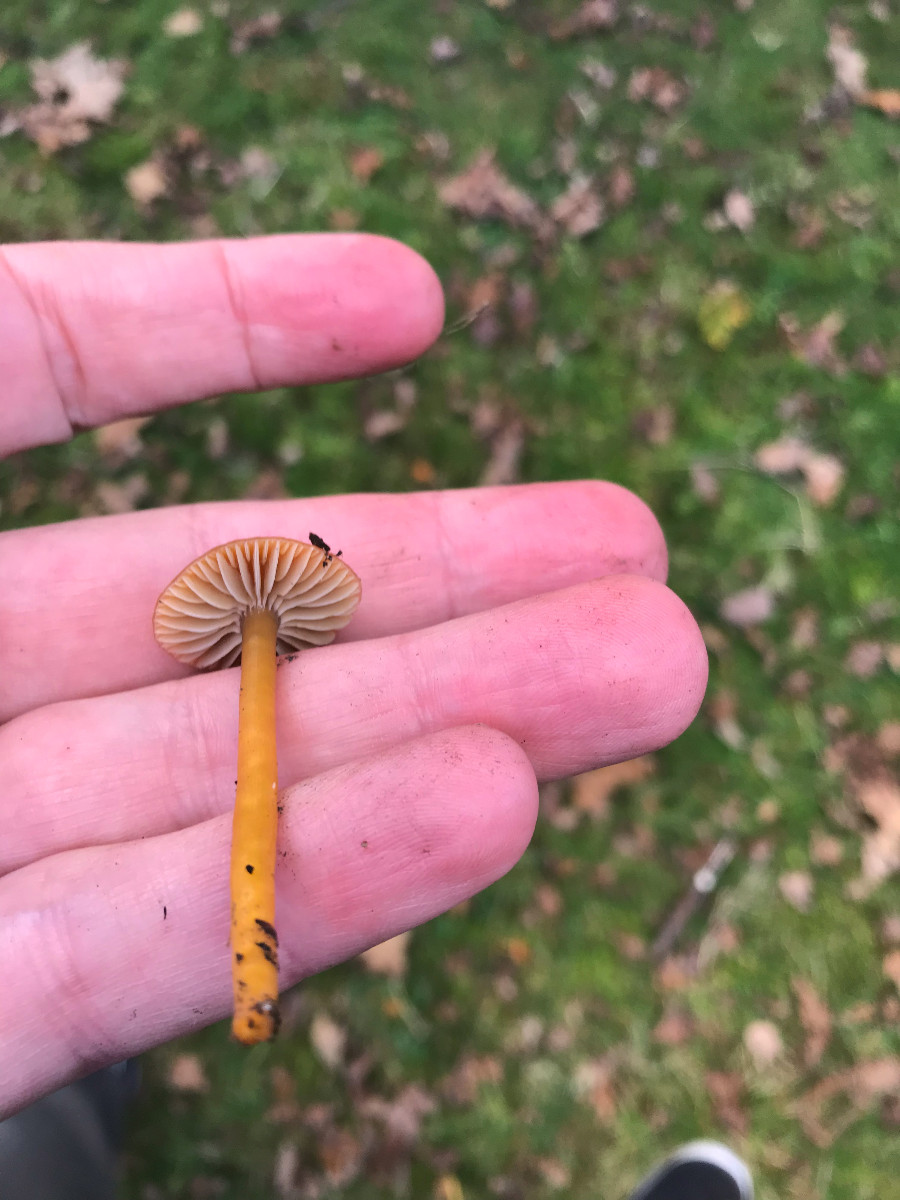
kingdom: Fungi
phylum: Basidiomycota
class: Agaricomycetes
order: Agaricales
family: Hygrophoraceae
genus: Gliophorus
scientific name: Gliophorus laetus
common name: brusk-vokshat
